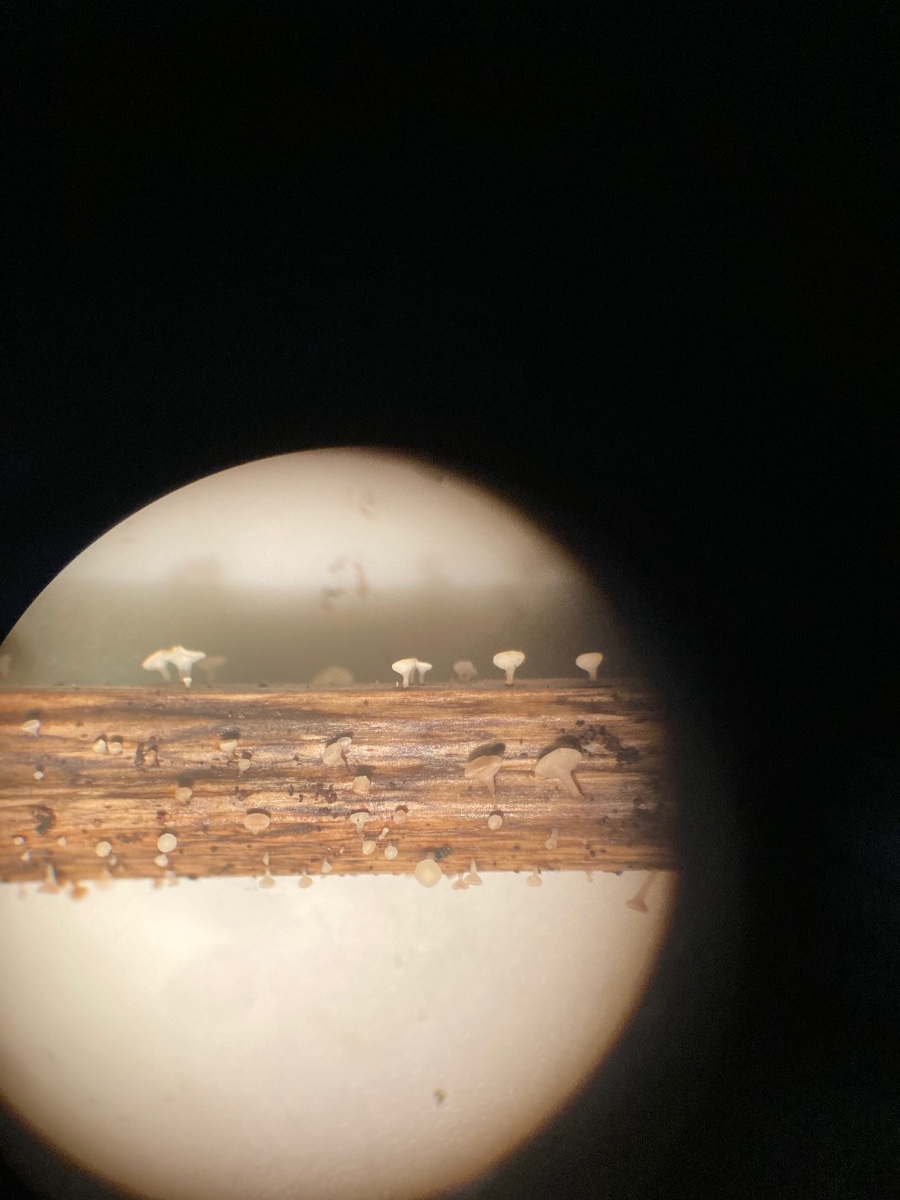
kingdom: Fungi
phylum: Ascomycota
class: Leotiomycetes
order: Helotiales
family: Helotiaceae
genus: Hymenoscyphus
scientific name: Hymenoscyphus scutula
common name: almindelig stilkskive
